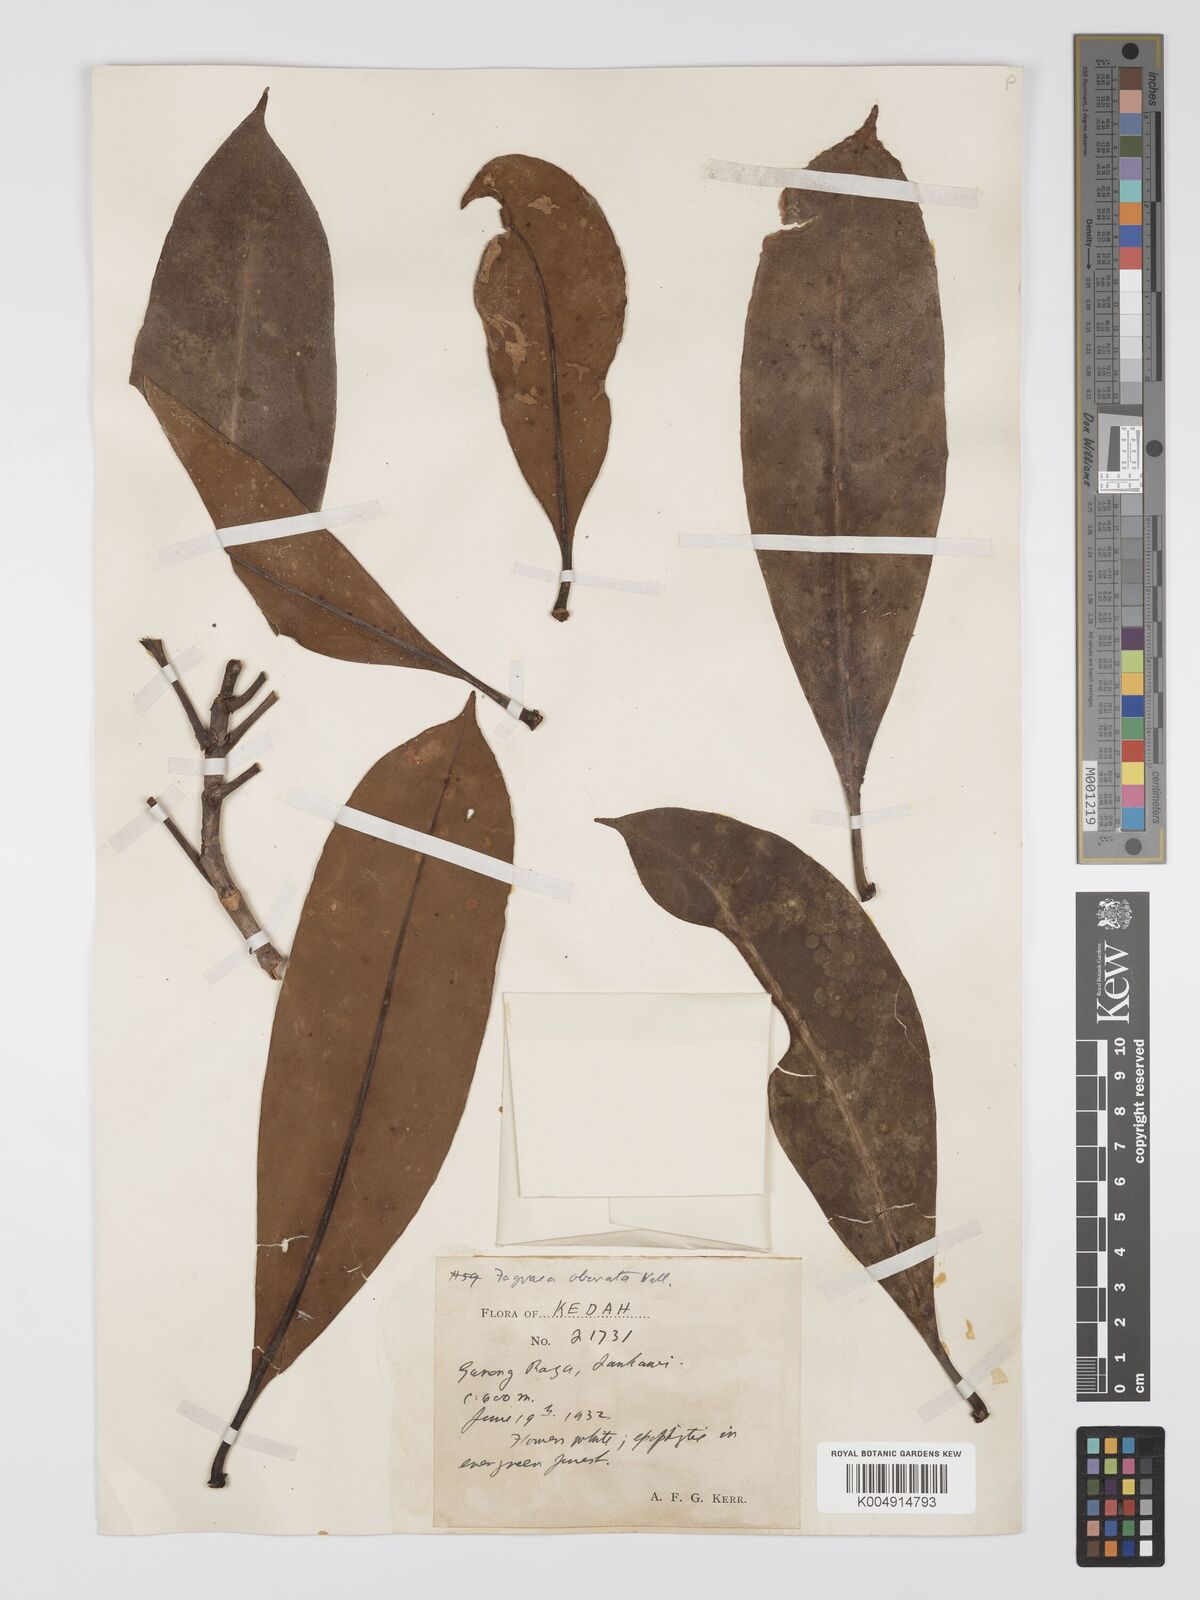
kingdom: Plantae
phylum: Tracheophyta
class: Magnoliopsida
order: Gentianales
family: Gentianaceae
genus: Fagraea
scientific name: Fagraea oblonga
